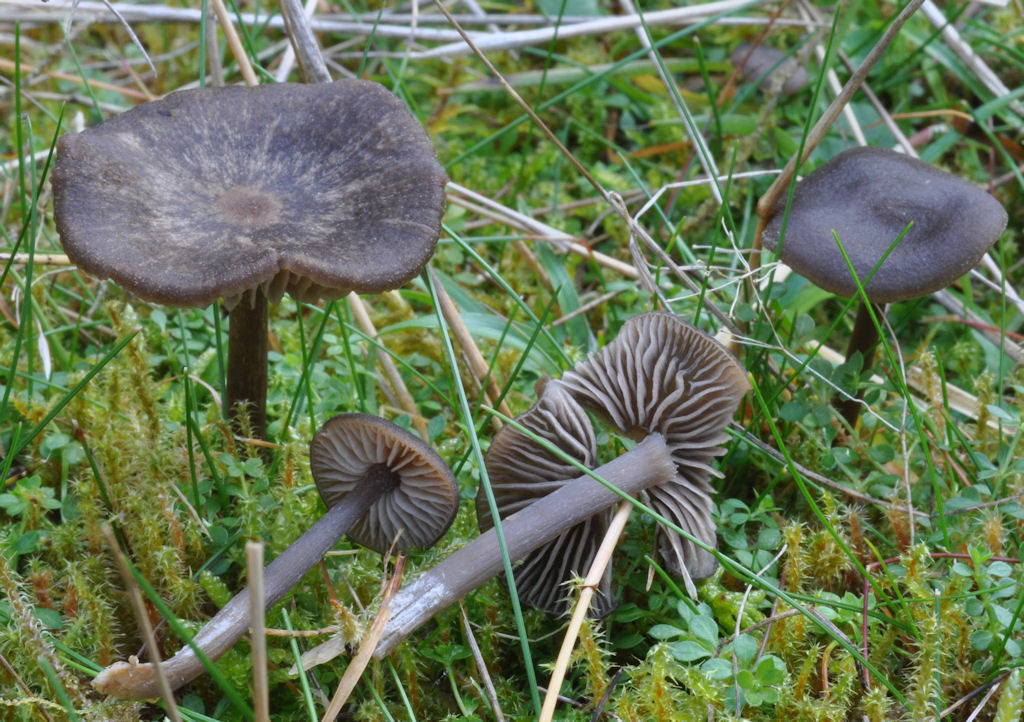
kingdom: Fungi
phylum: Basidiomycota
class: Agaricomycetes
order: Agaricales
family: Entolomataceae
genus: Entoloma
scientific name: Entoloma fernandae
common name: filtet rødblad
